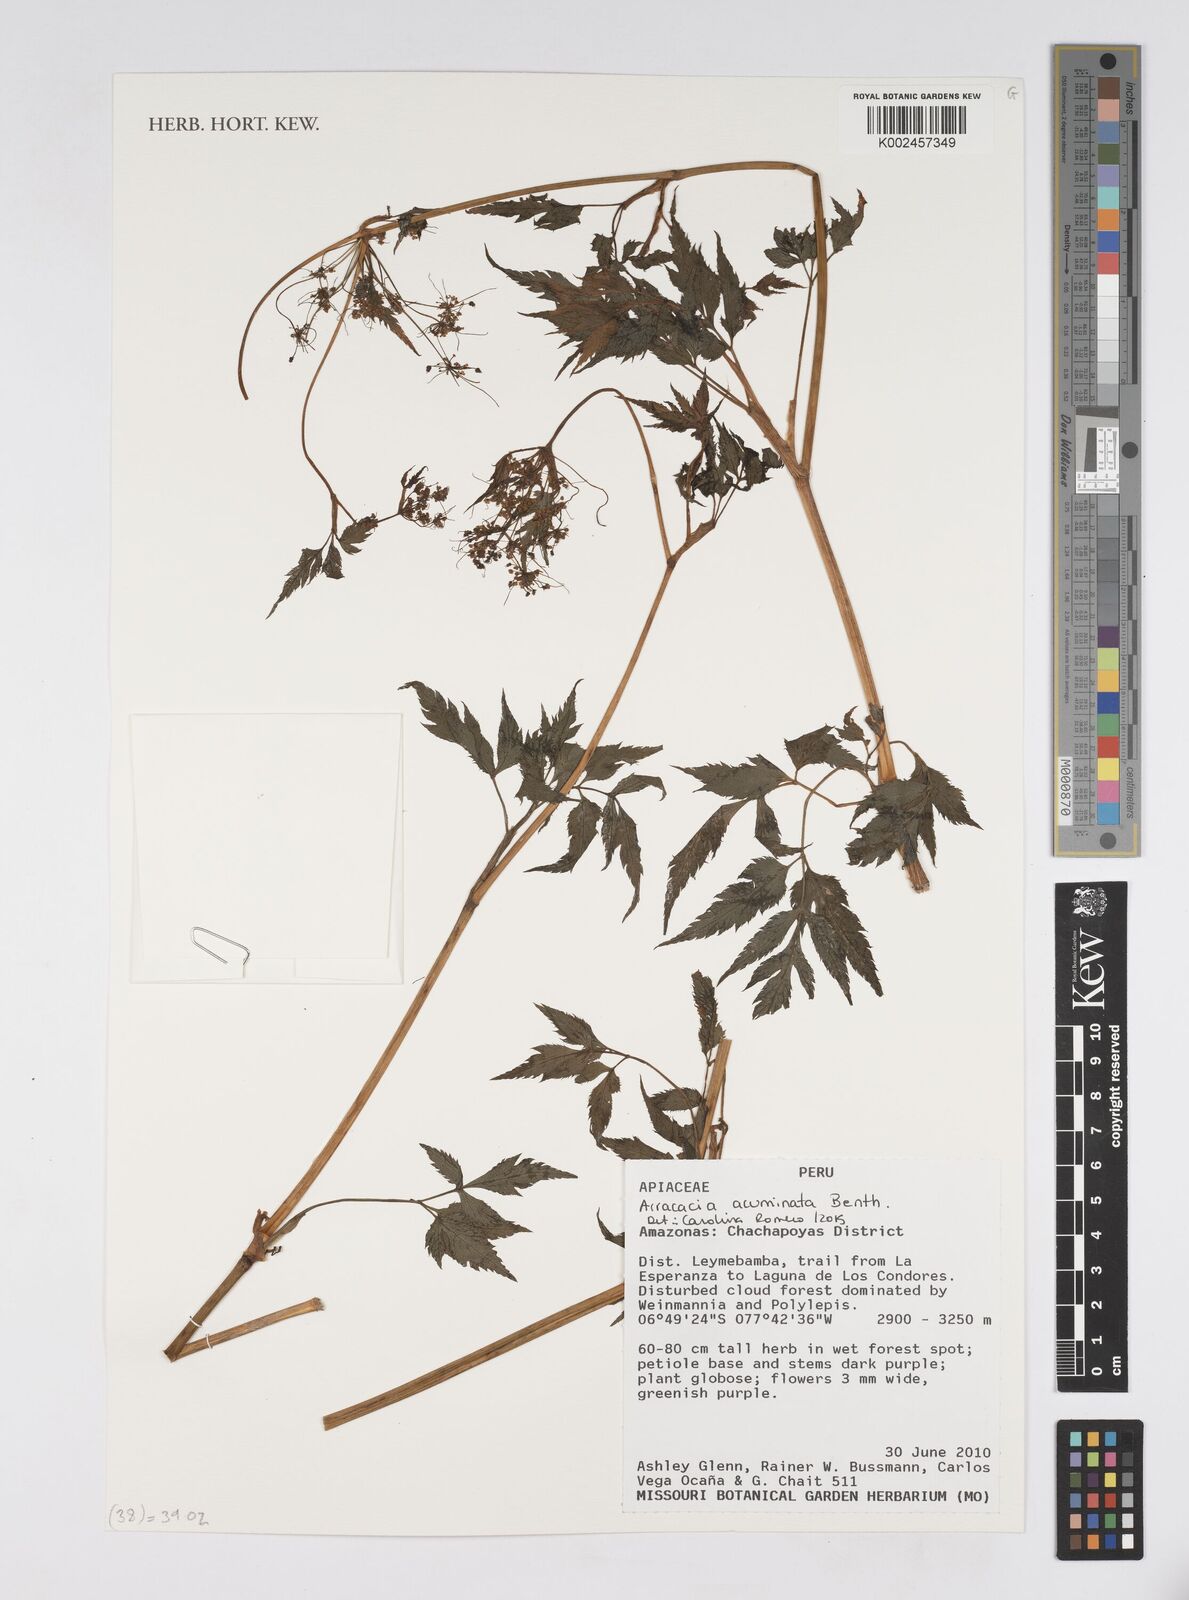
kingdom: Plantae
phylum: Tracheophyta
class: Magnoliopsida
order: Apiales
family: Apiaceae
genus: Neonelsonia
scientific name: Neonelsonia acuminata
